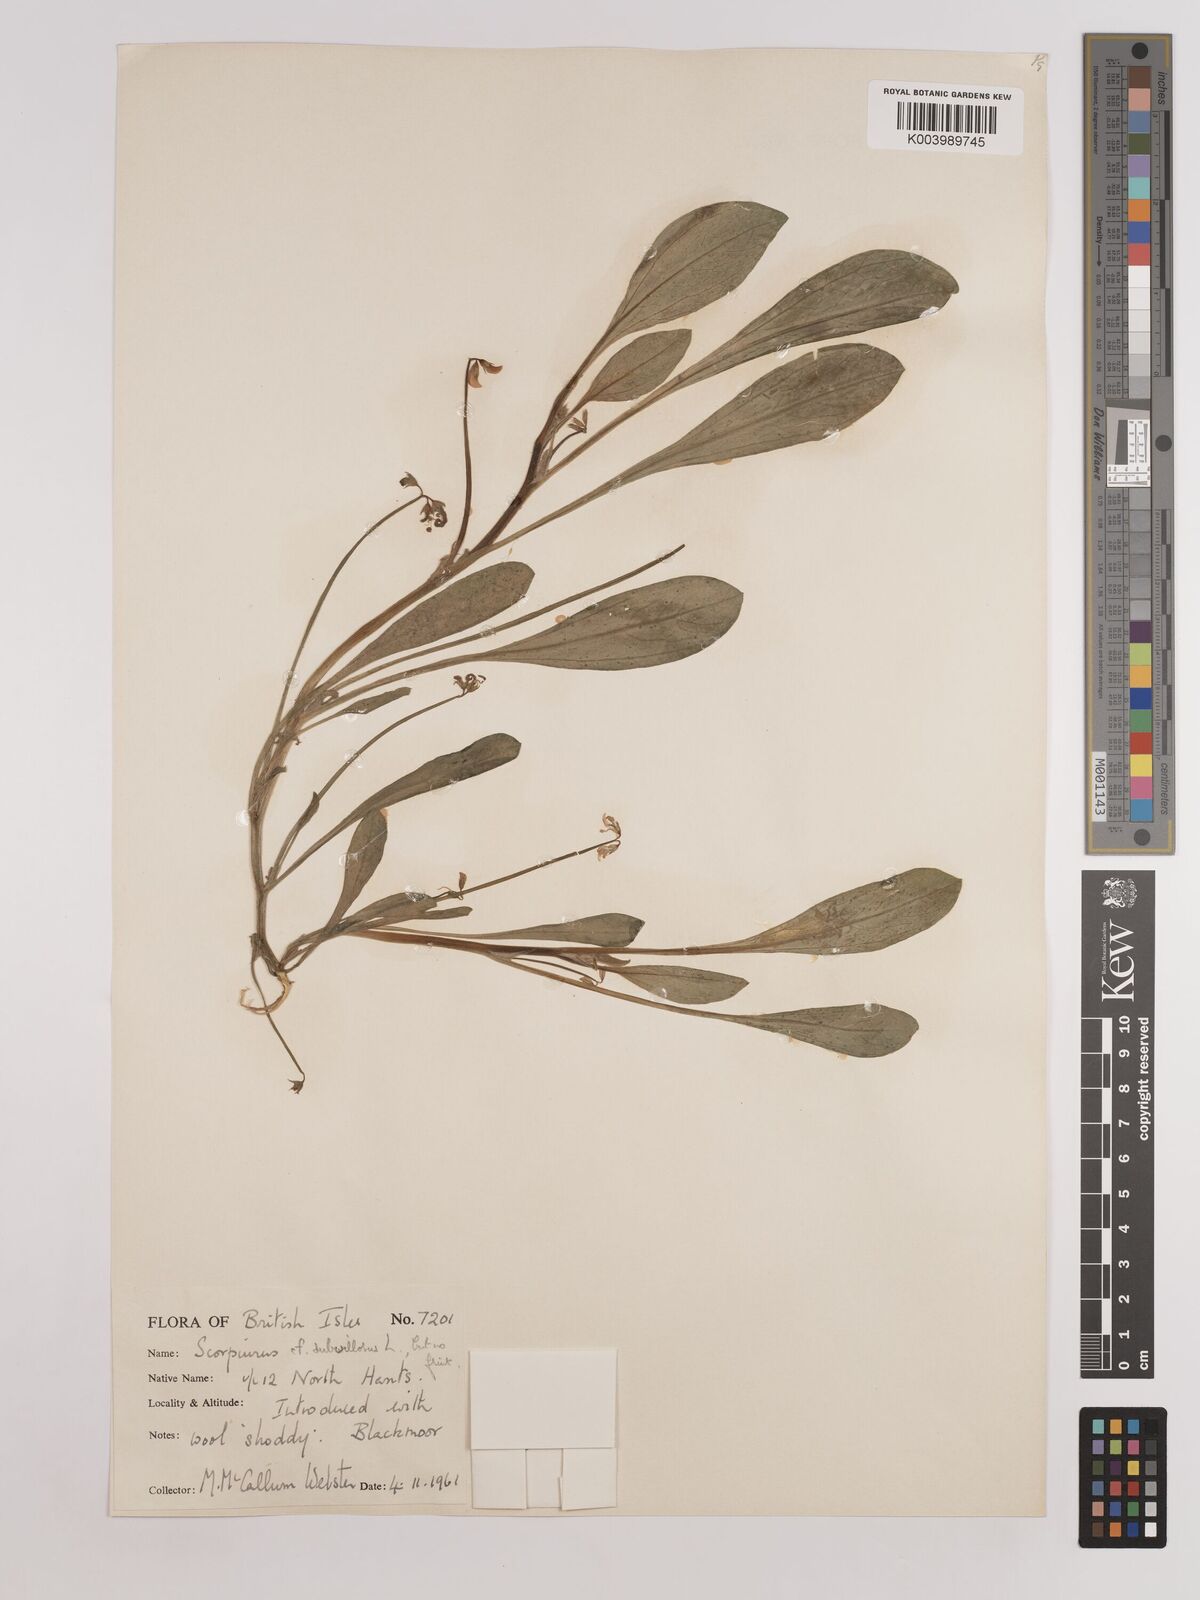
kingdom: Plantae
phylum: Tracheophyta
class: Magnoliopsida
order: Fabales
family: Fabaceae
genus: Scorpiurus
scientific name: Scorpiurus muricatus
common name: Caterpillar-plant
